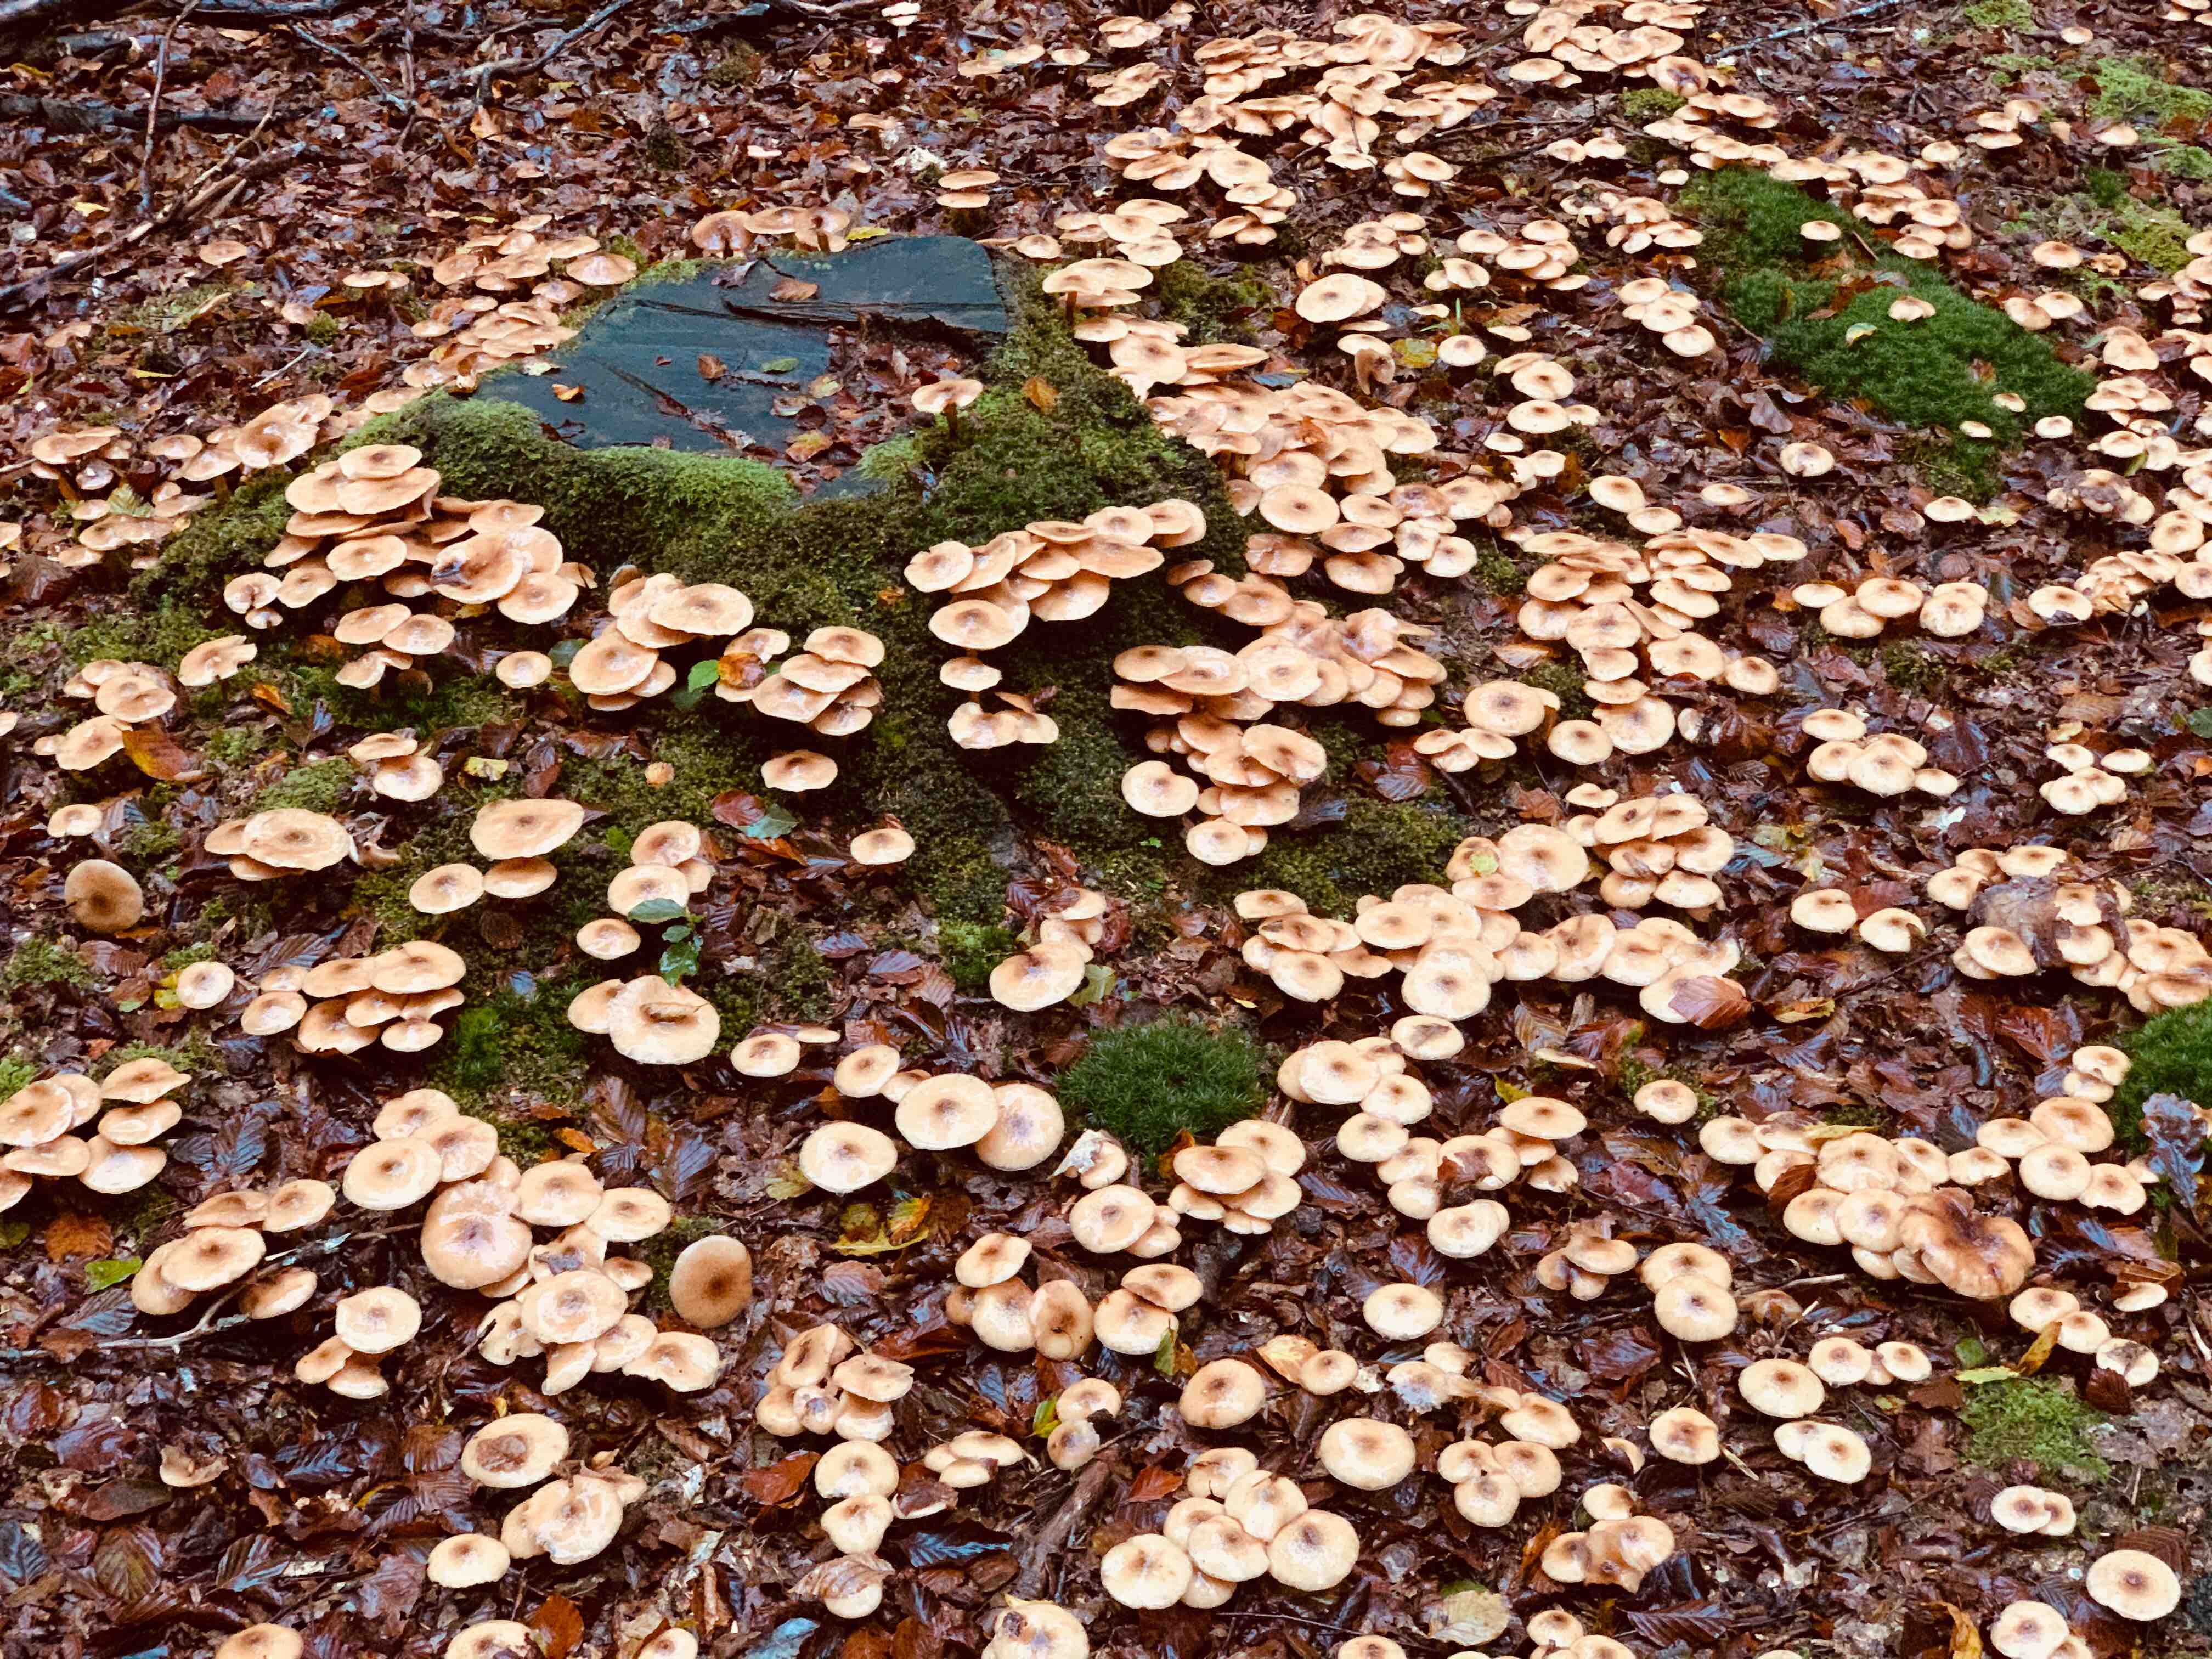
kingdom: Fungi
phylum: Basidiomycota
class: Agaricomycetes
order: Agaricales
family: Physalacriaceae
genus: Armillaria
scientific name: Armillaria
